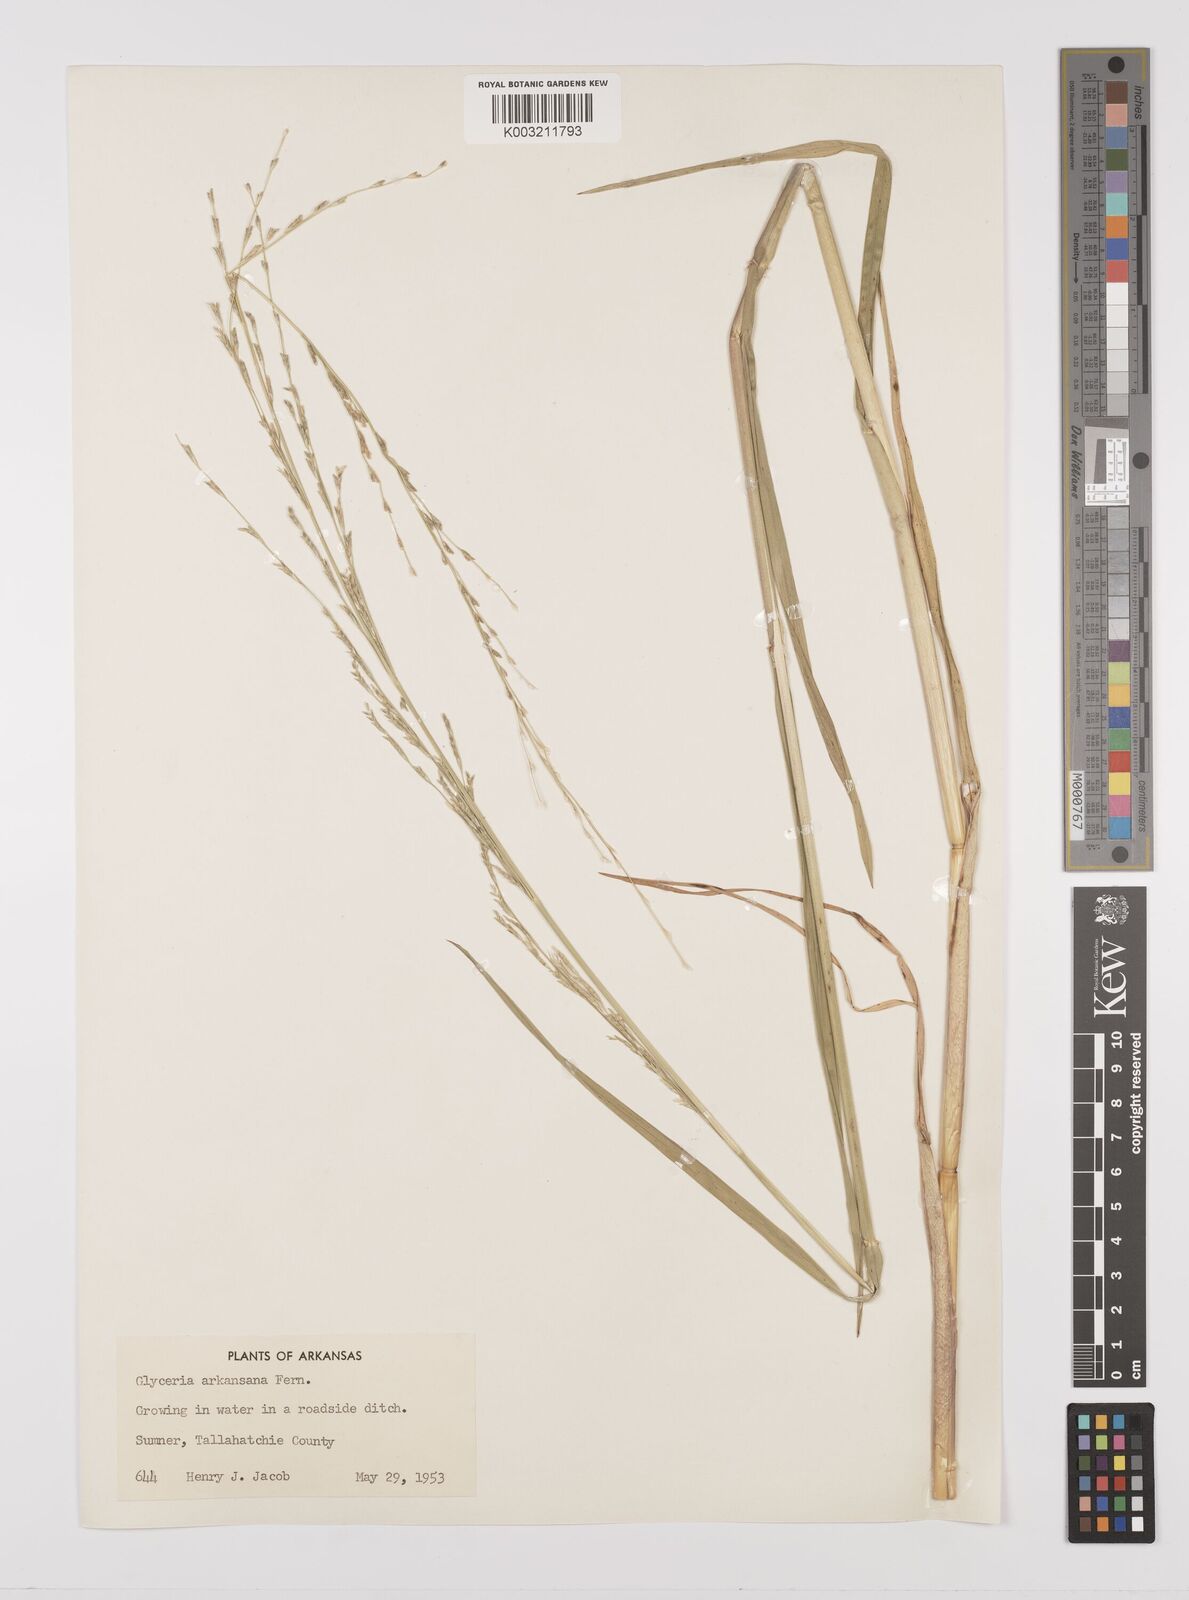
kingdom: Plantae
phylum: Tracheophyta
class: Liliopsida
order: Poales
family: Poaceae
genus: Glyceria
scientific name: Glyceria arkansana
